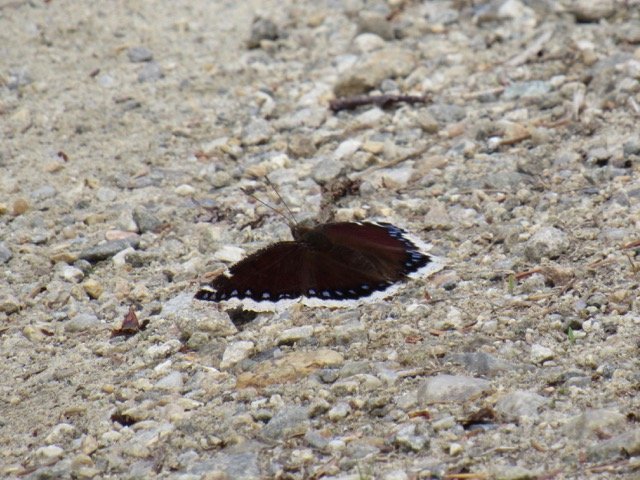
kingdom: Animalia
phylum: Arthropoda
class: Insecta
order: Lepidoptera
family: Nymphalidae
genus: Nymphalis
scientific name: Nymphalis antiopa
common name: Mourning Cloak
